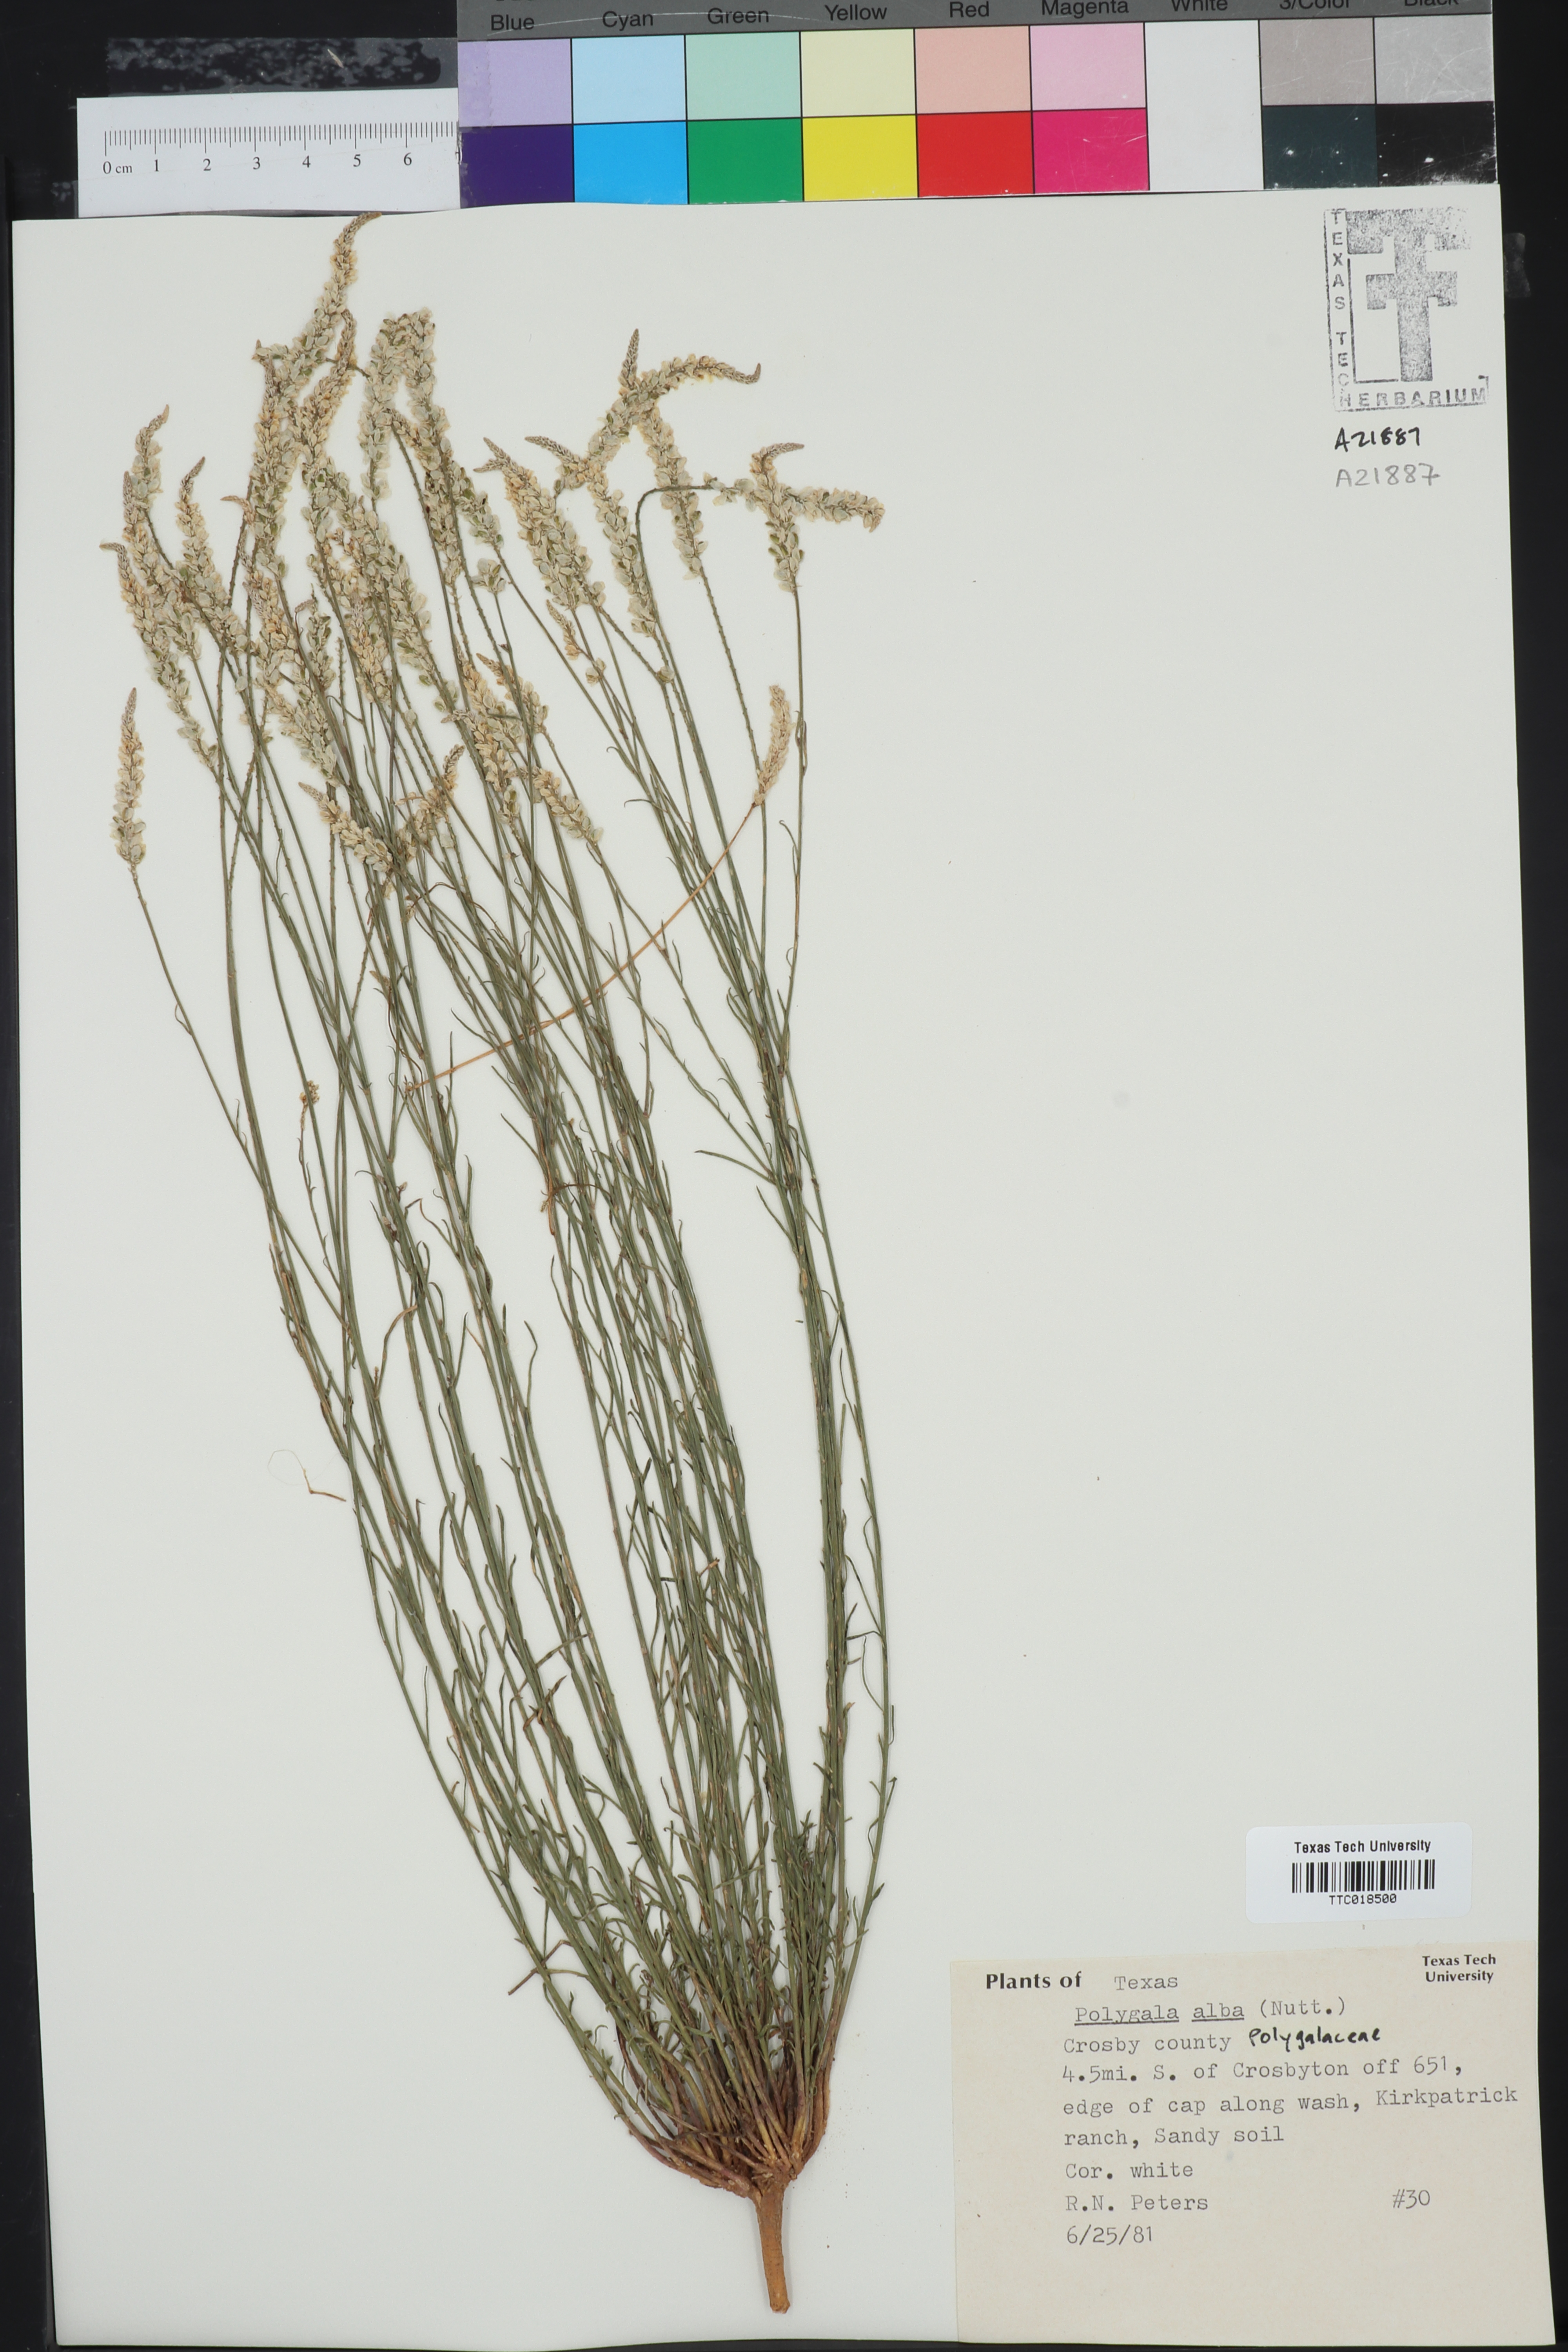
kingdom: Plantae
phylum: Tracheophyta
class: Magnoliopsida
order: Fabales
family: Polygalaceae
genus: Polygala
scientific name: Polygala alba
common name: White milkwort
